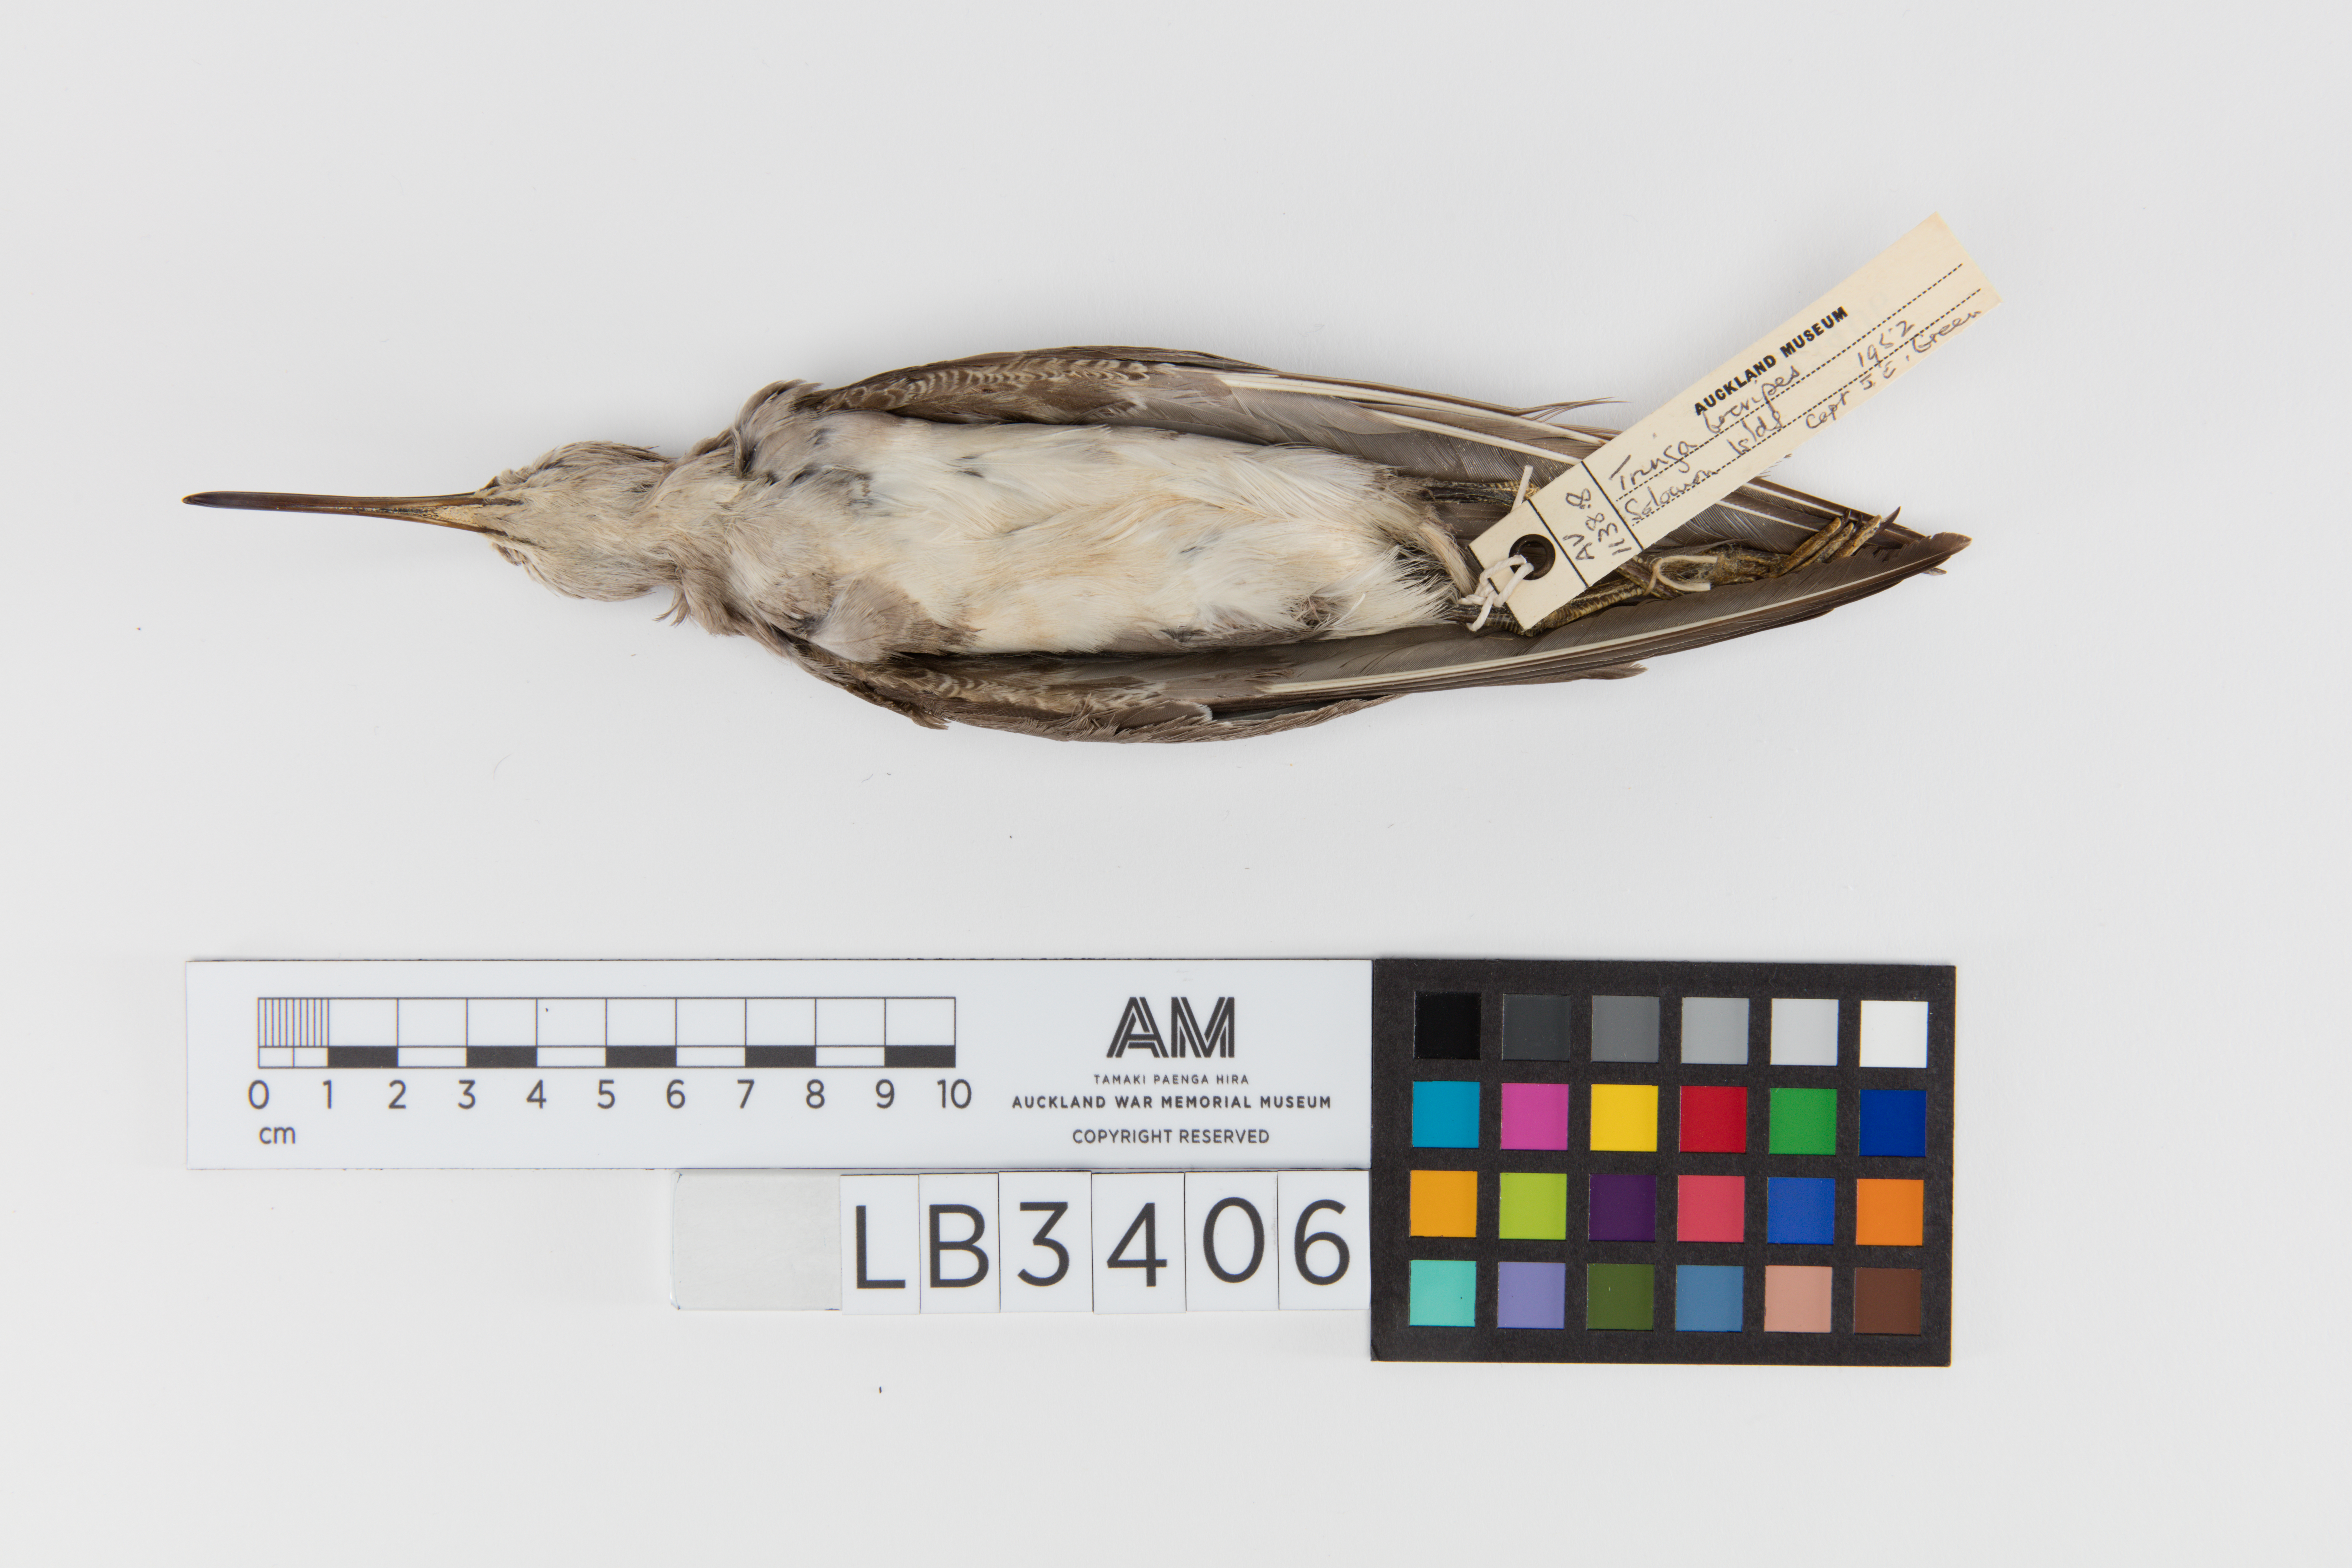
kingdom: Animalia
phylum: Chordata
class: Aves
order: Charadriiformes
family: Scolopacidae
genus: Tringa
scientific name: Tringa brevipes
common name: Grey-tailed tattler
